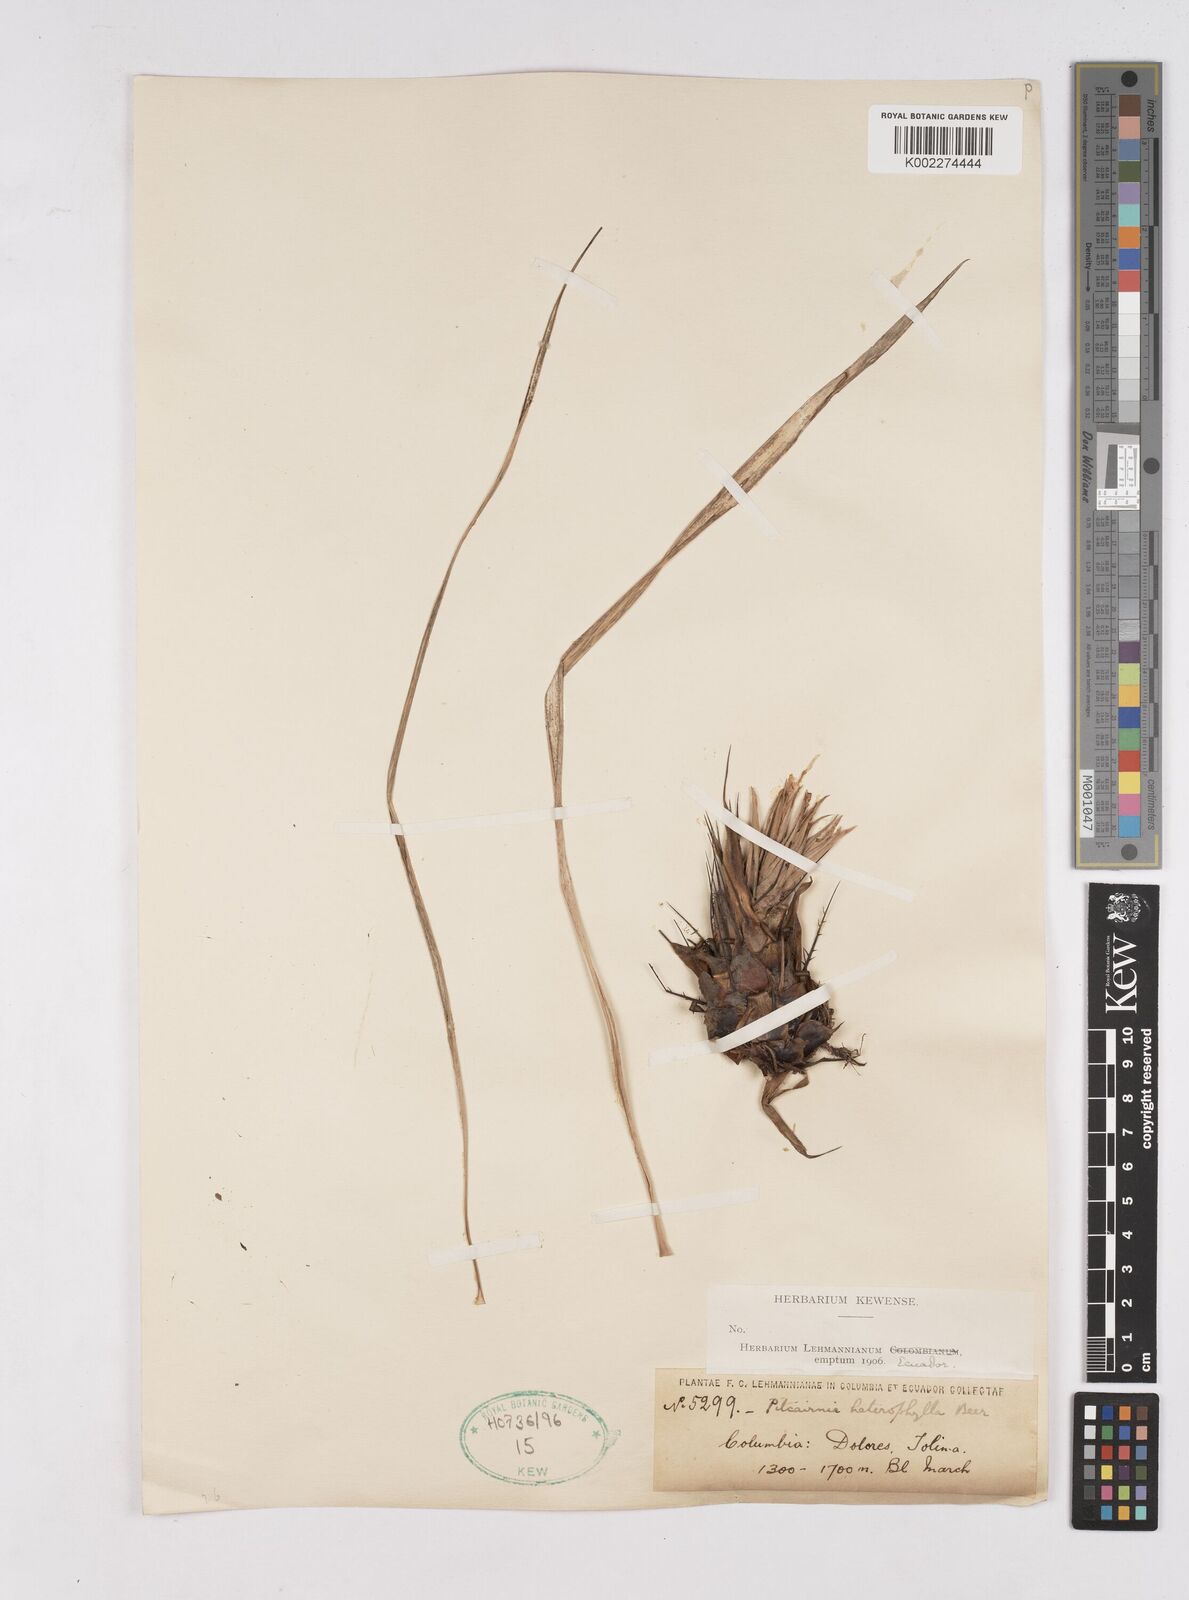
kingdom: Plantae
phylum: Tracheophyta
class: Liliopsida
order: Poales
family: Bromeliaceae
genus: Pitcairnia
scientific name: Pitcairnia heterophylla
